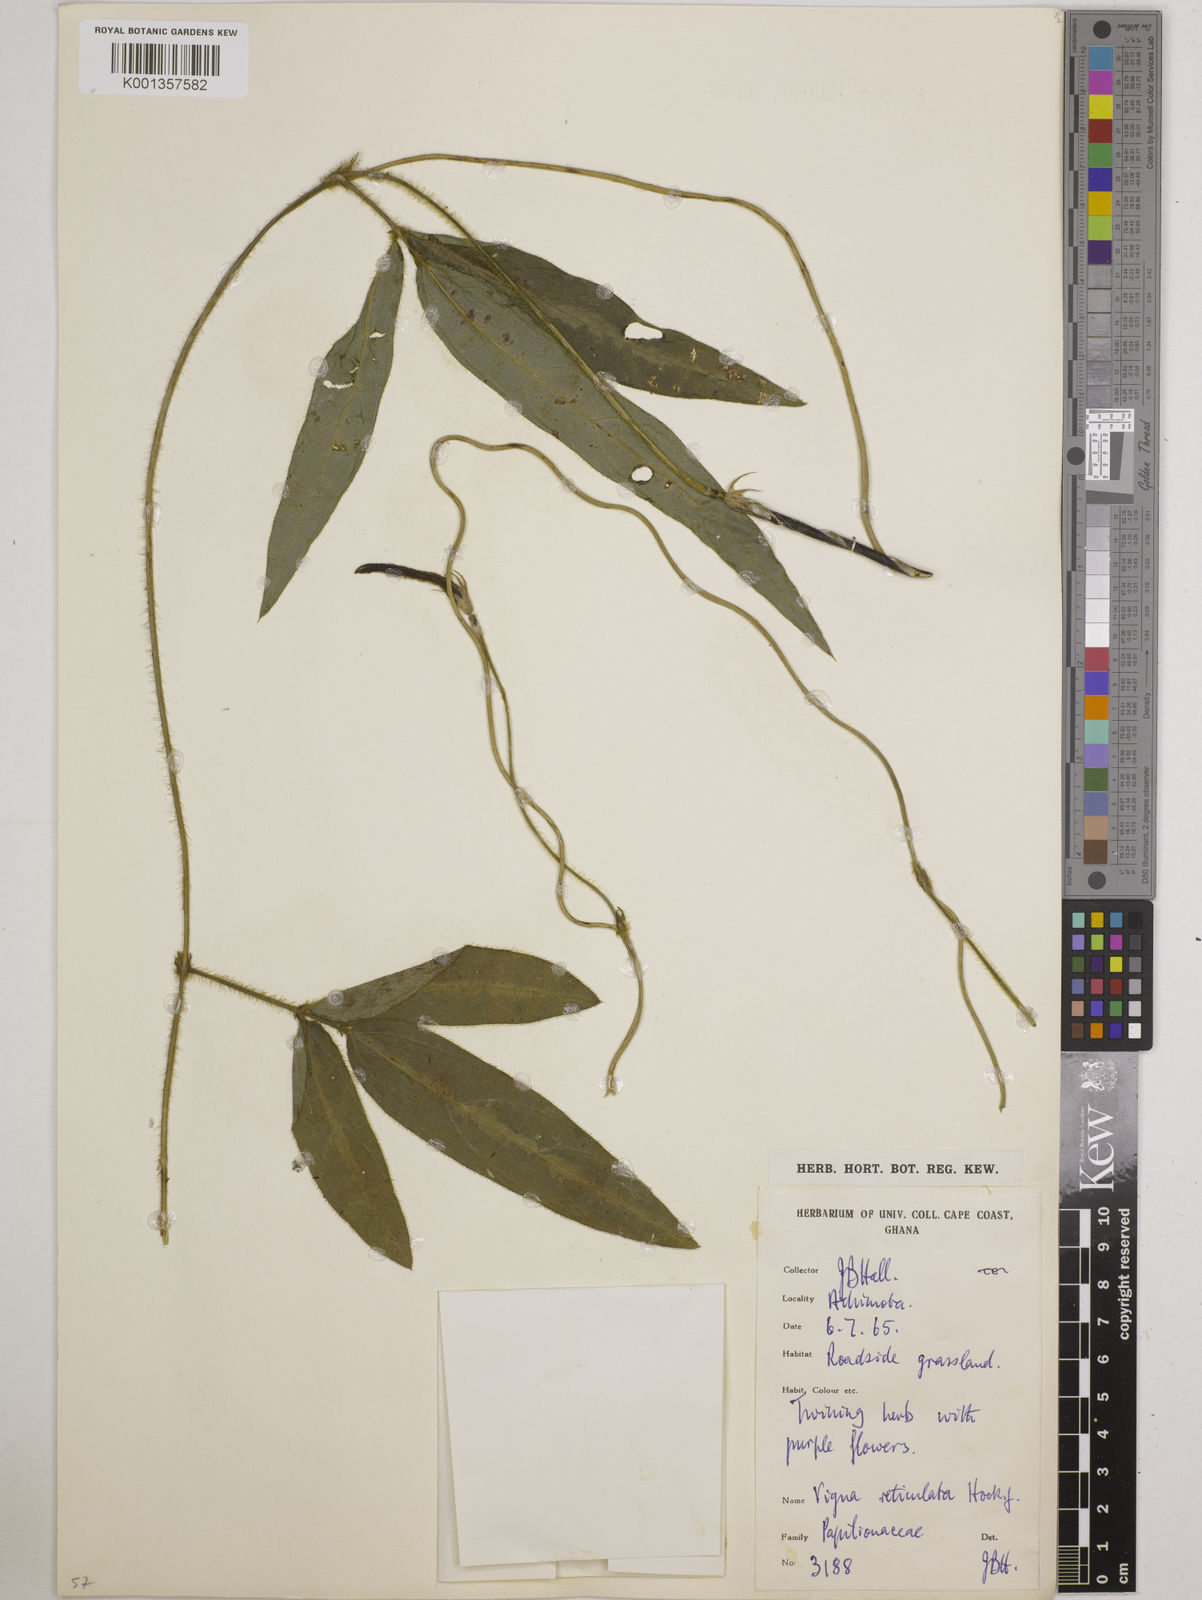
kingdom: Plantae
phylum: Tracheophyta
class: Magnoliopsida
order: Fabales
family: Fabaceae
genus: Vigna
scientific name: Vigna reticulata
